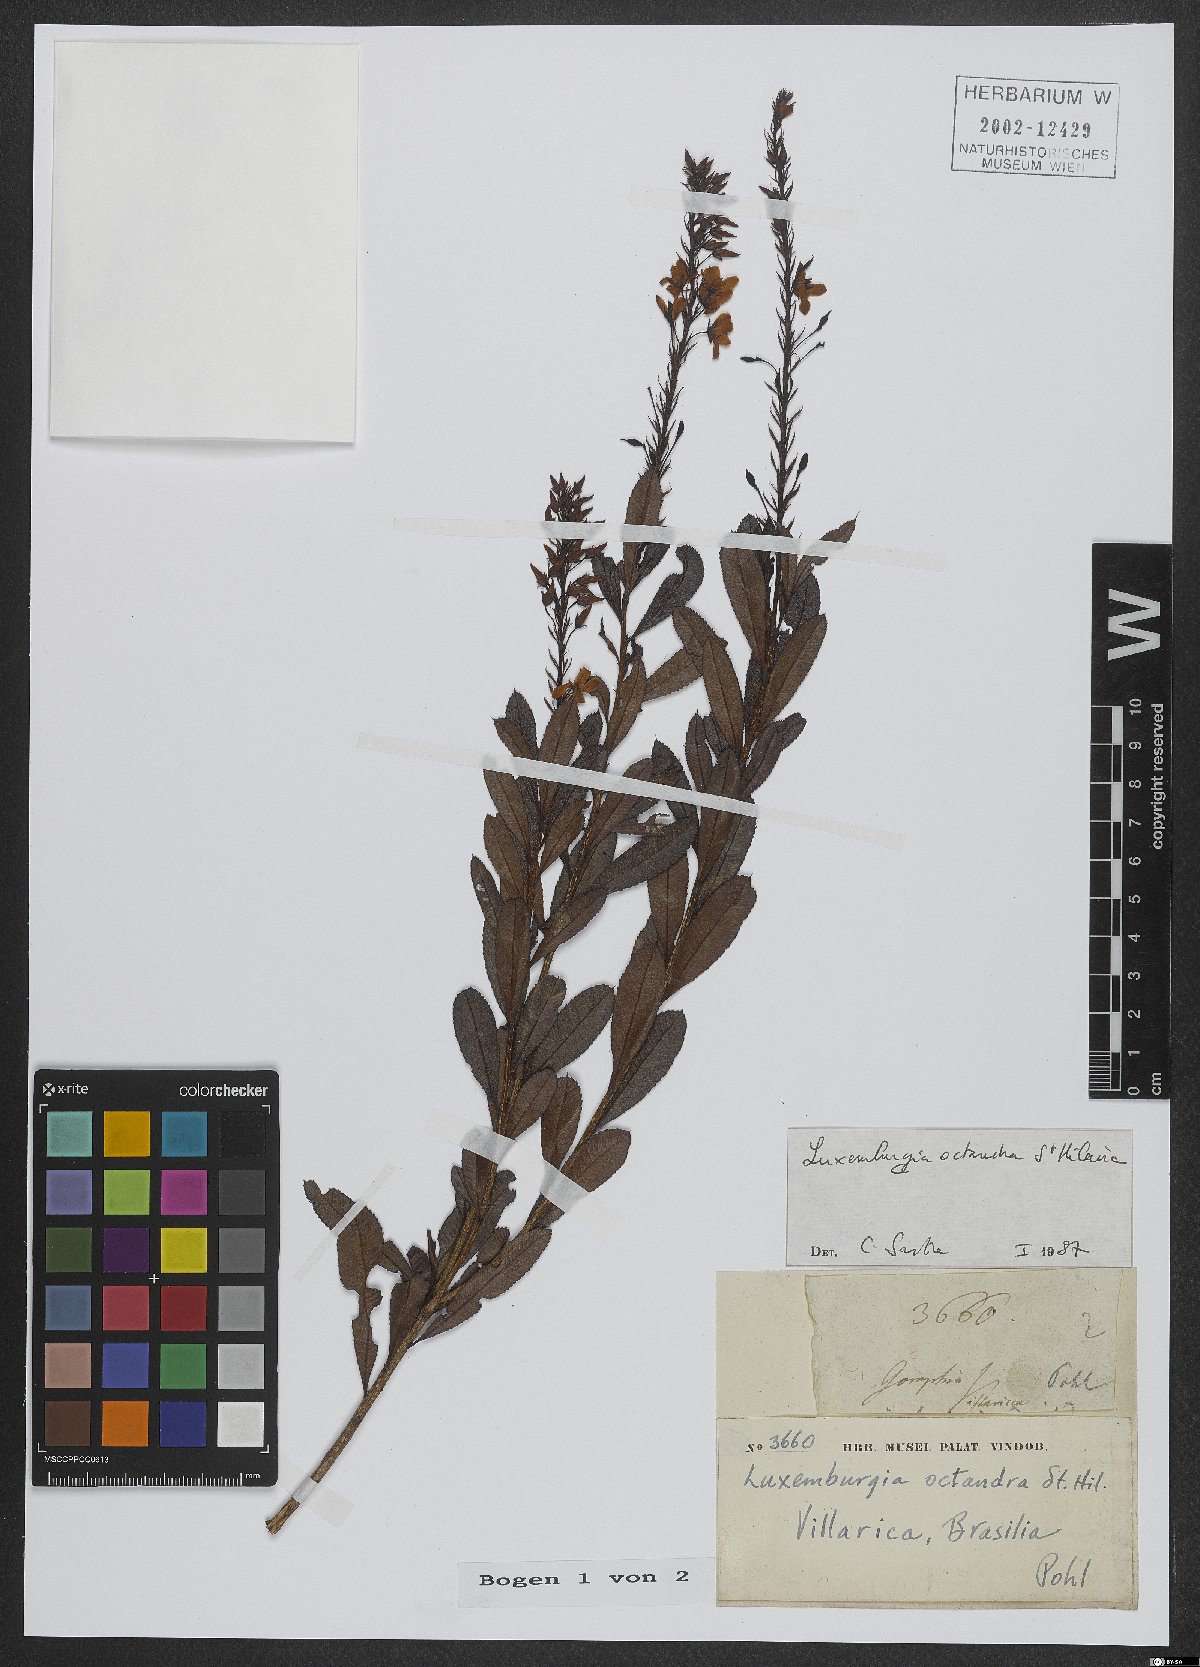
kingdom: Plantae
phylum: Tracheophyta
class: Magnoliopsida
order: Malpighiales
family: Ochnaceae
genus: Luxemburgia
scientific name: Luxemburgia octandra
